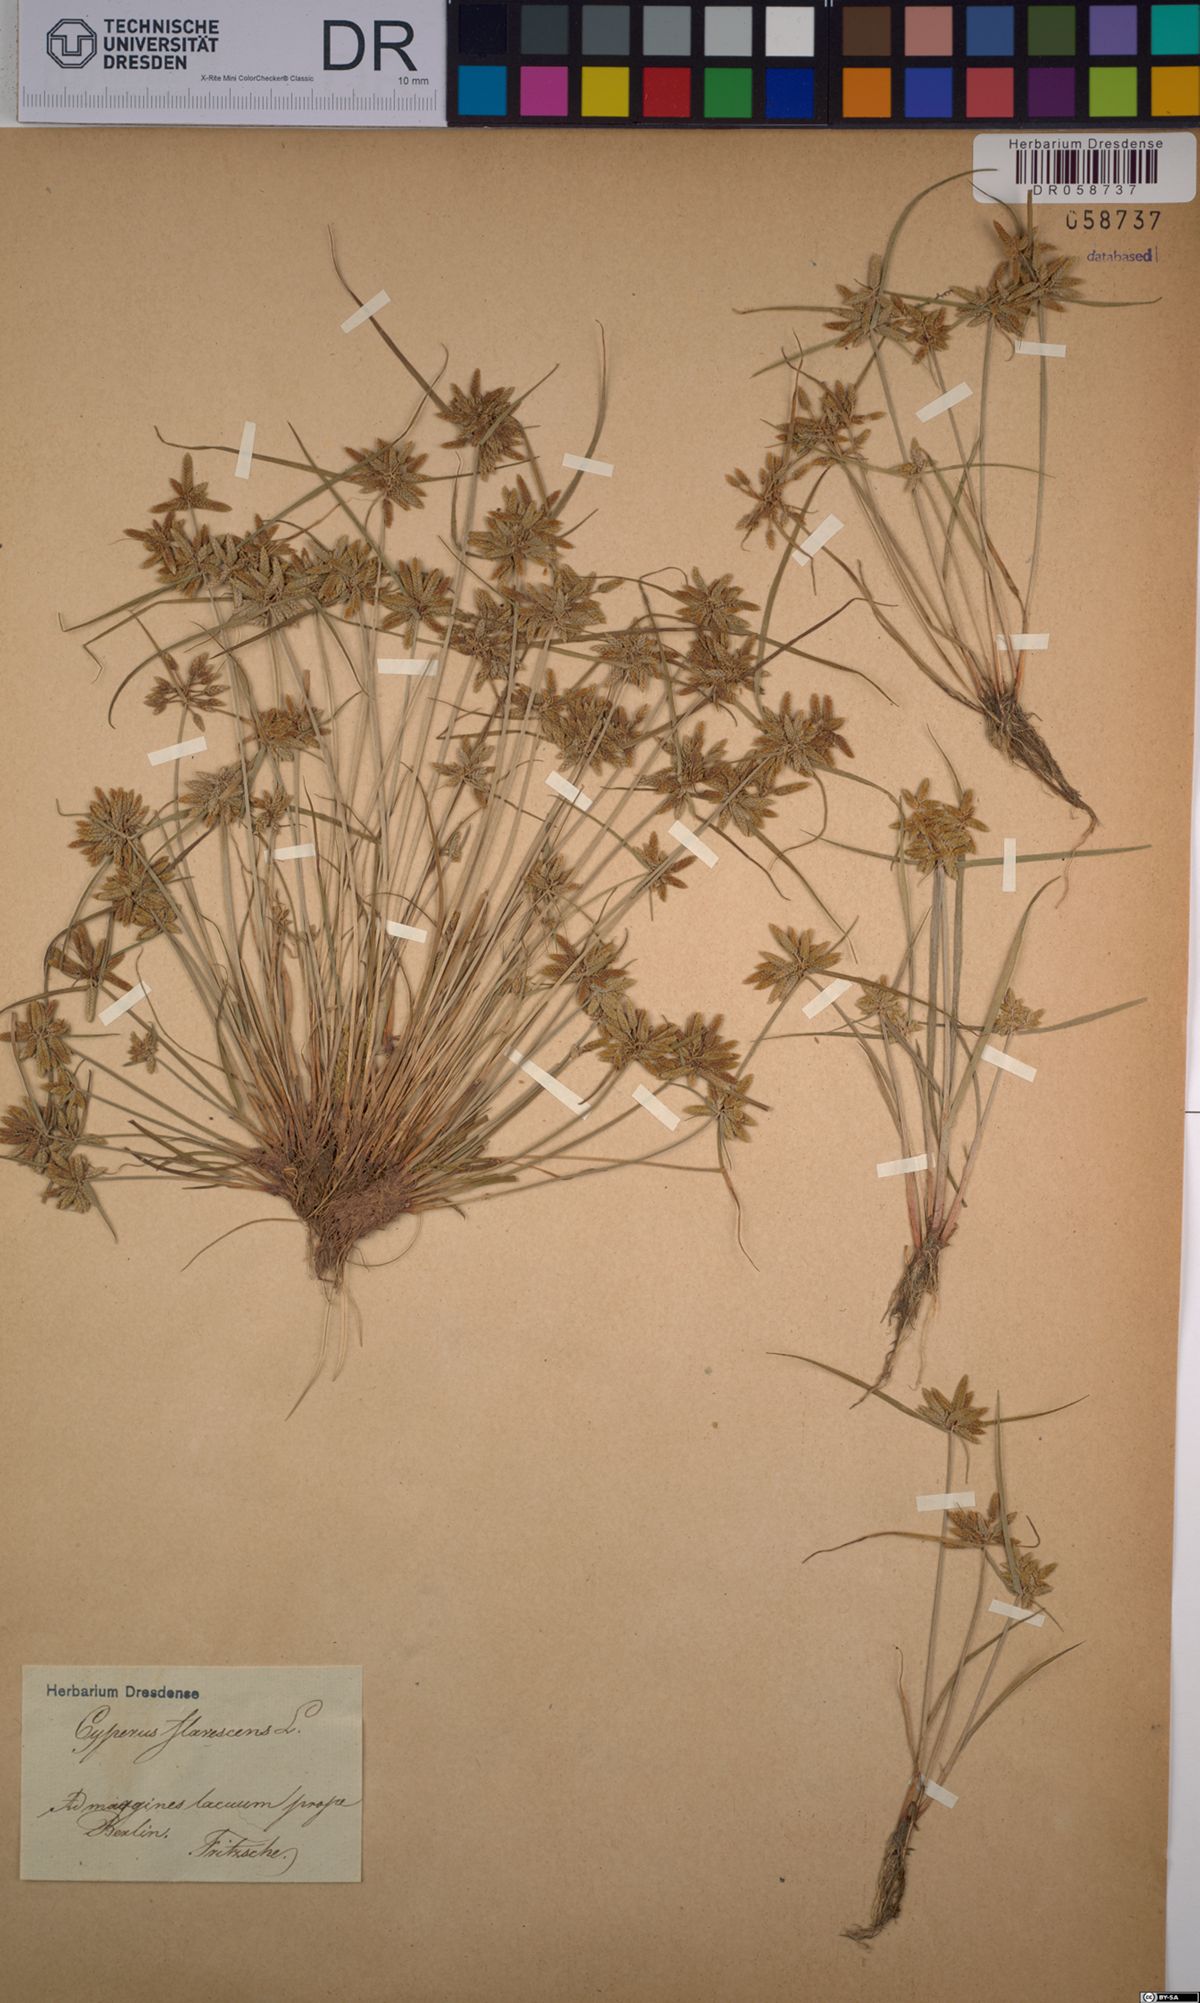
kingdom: Plantae
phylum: Tracheophyta
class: Liliopsida
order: Poales
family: Cyperaceae
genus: Cyperus
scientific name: Cyperus flavescens
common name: Yellow galingale
